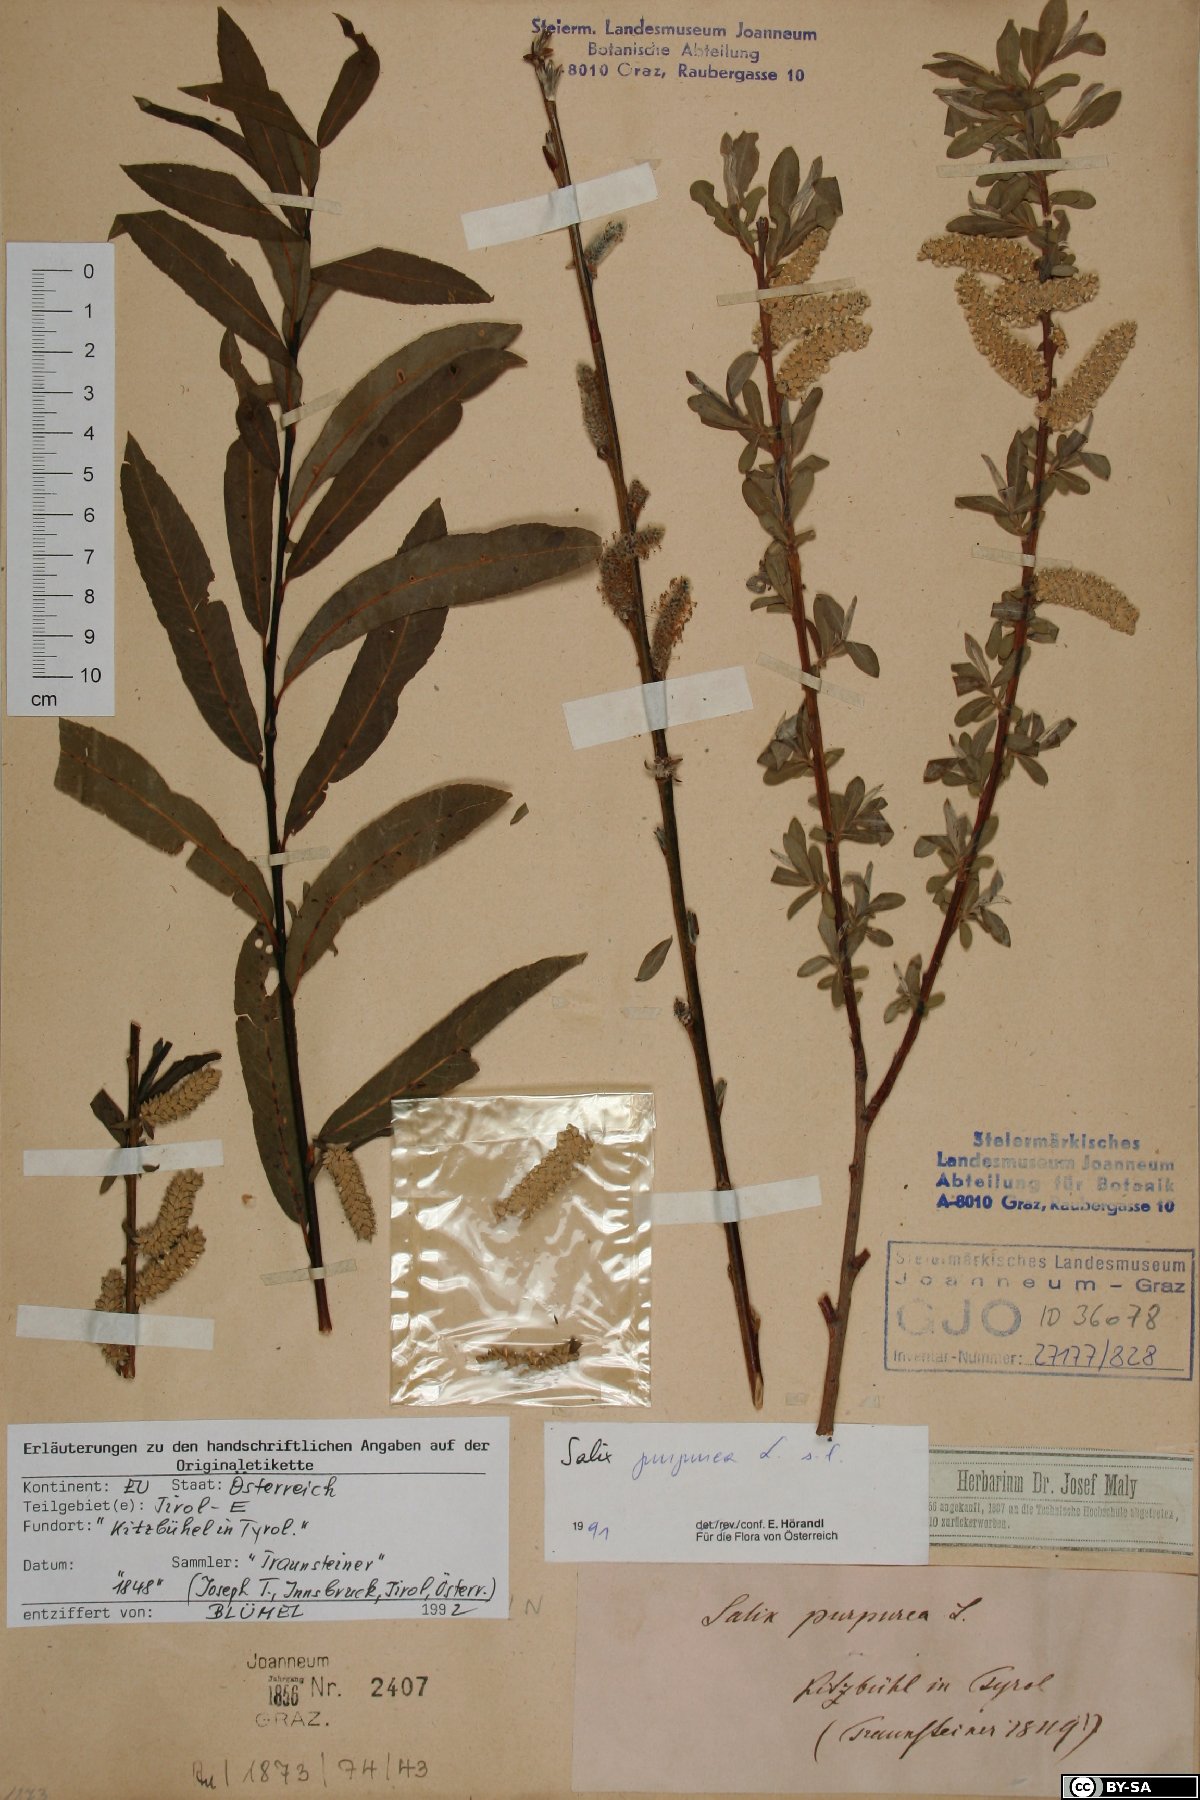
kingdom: Plantae
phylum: Tracheophyta
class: Magnoliopsida
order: Malpighiales
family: Salicaceae
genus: Salix
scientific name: Salix purpurea
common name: Purple willow
